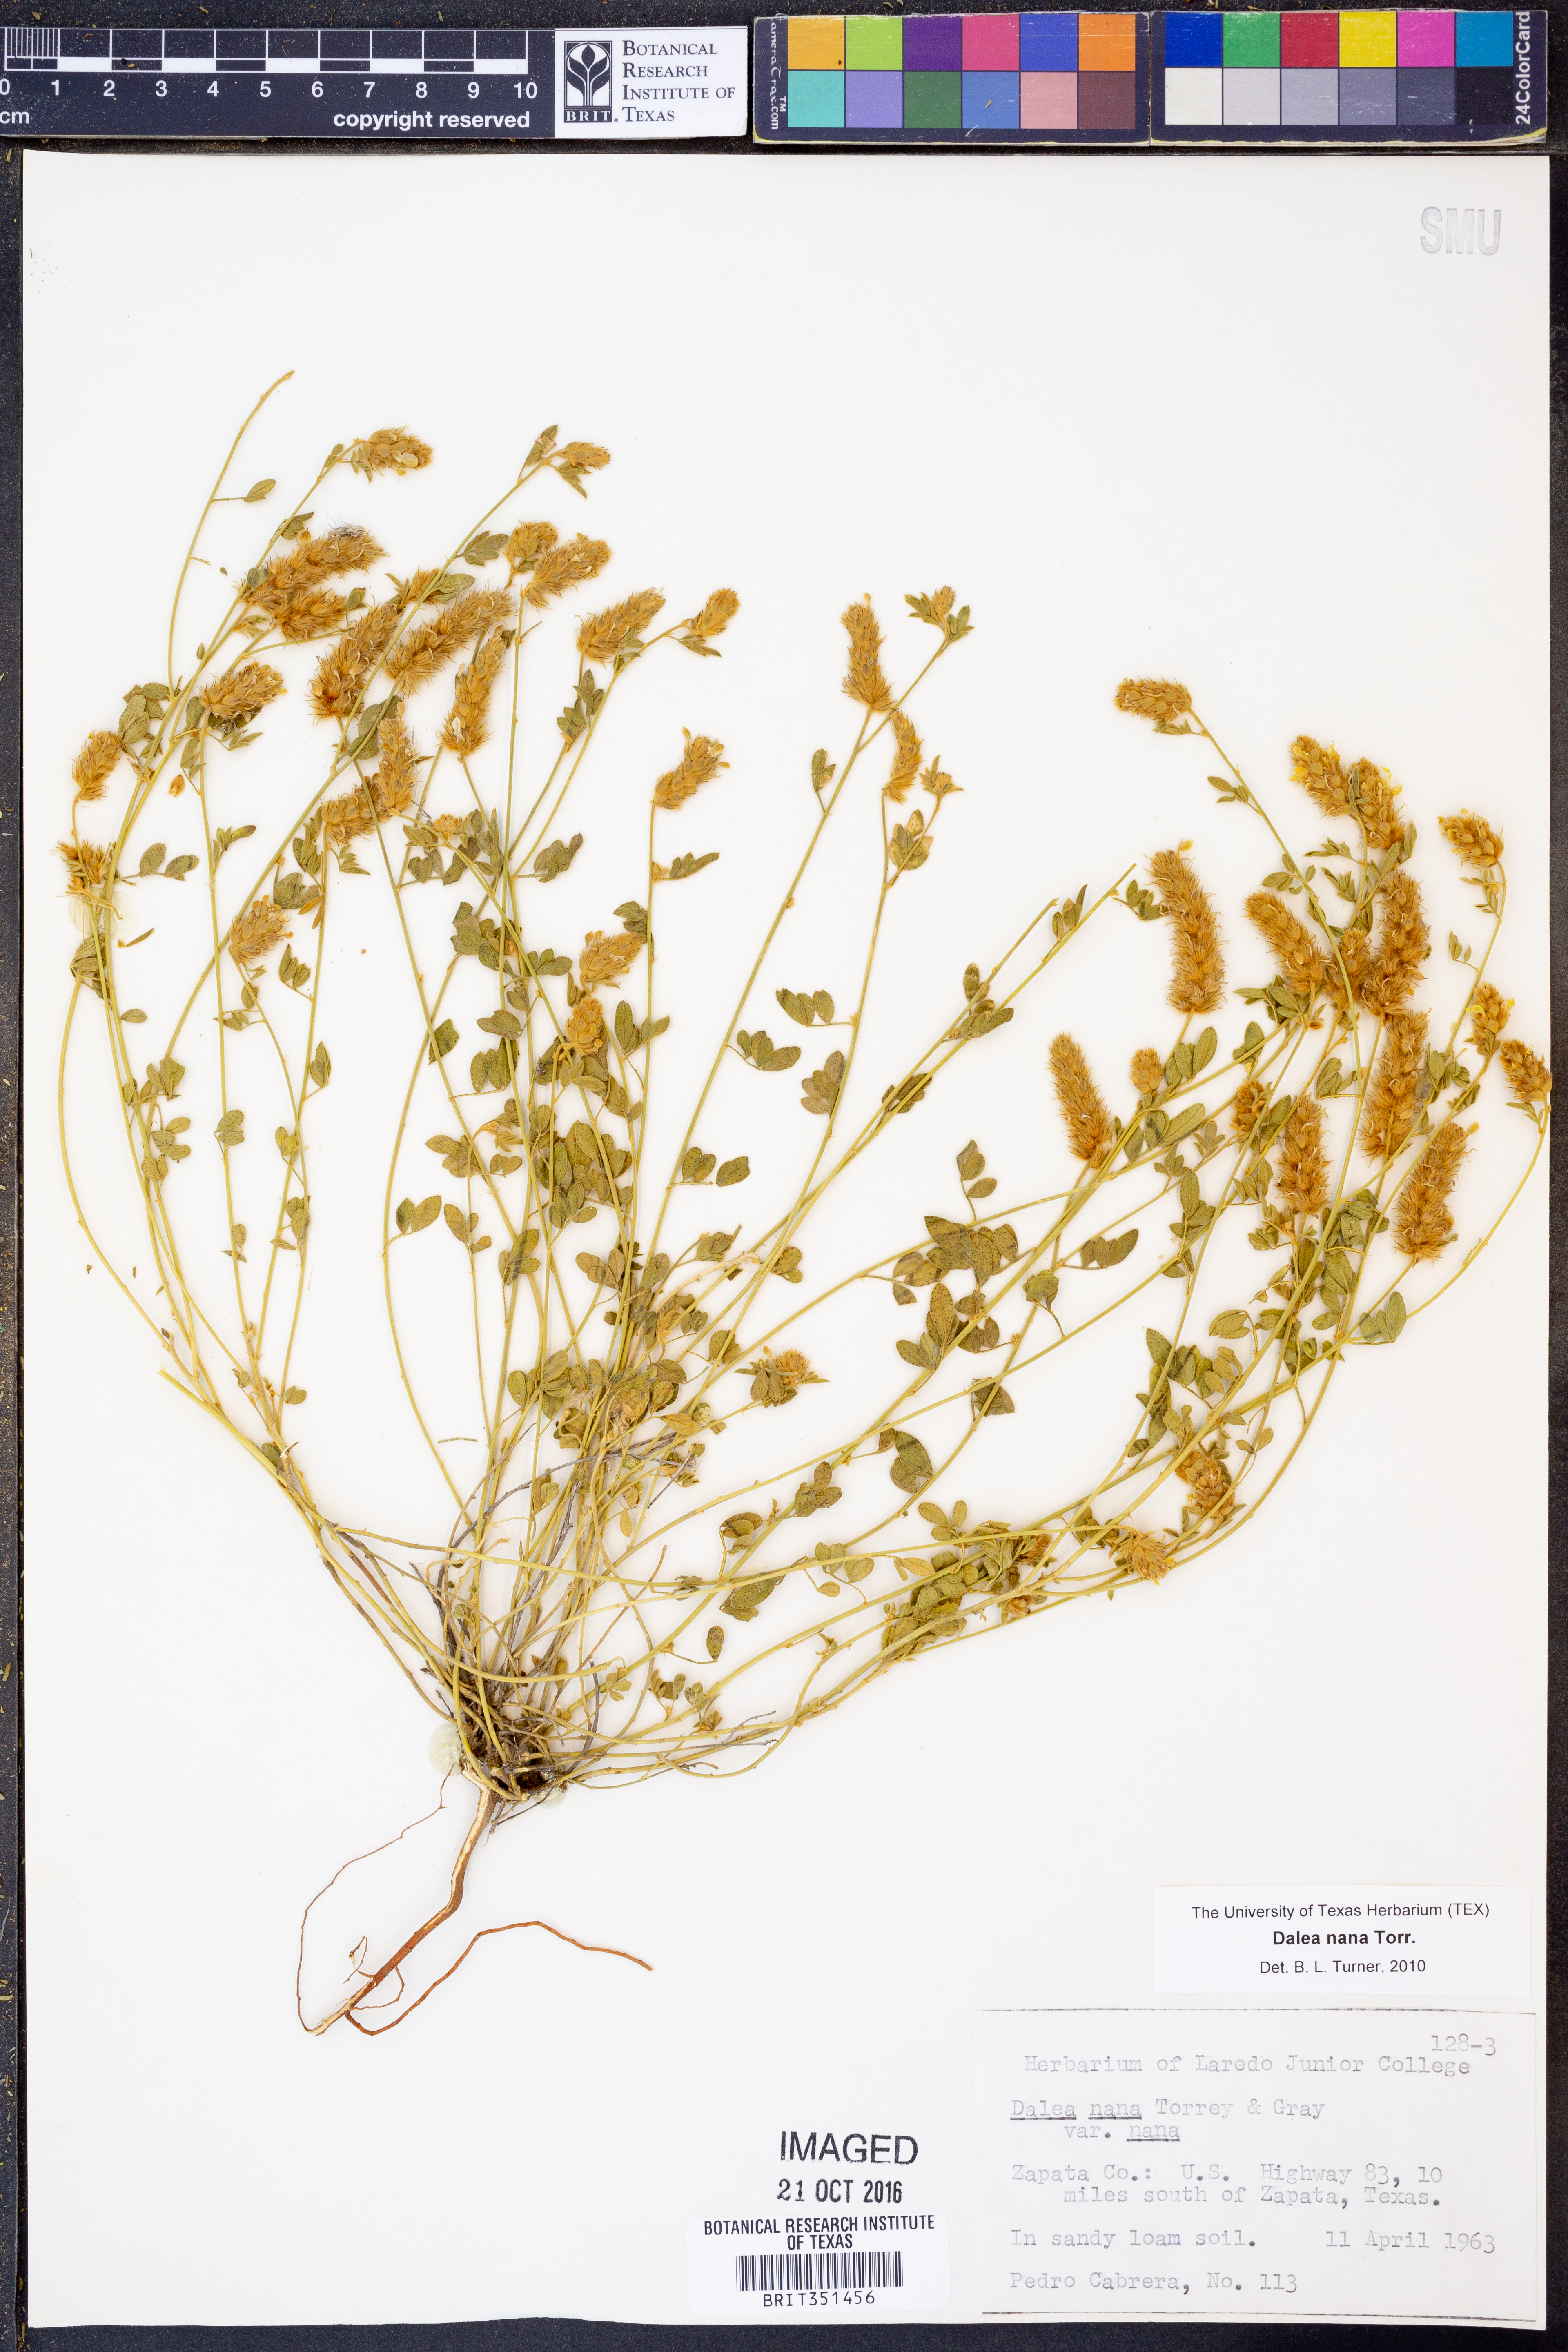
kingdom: Plantae
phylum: Tracheophyta
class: Magnoliopsida
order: Fabales
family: Fabaceae
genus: Dalea
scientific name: Dalea nana
